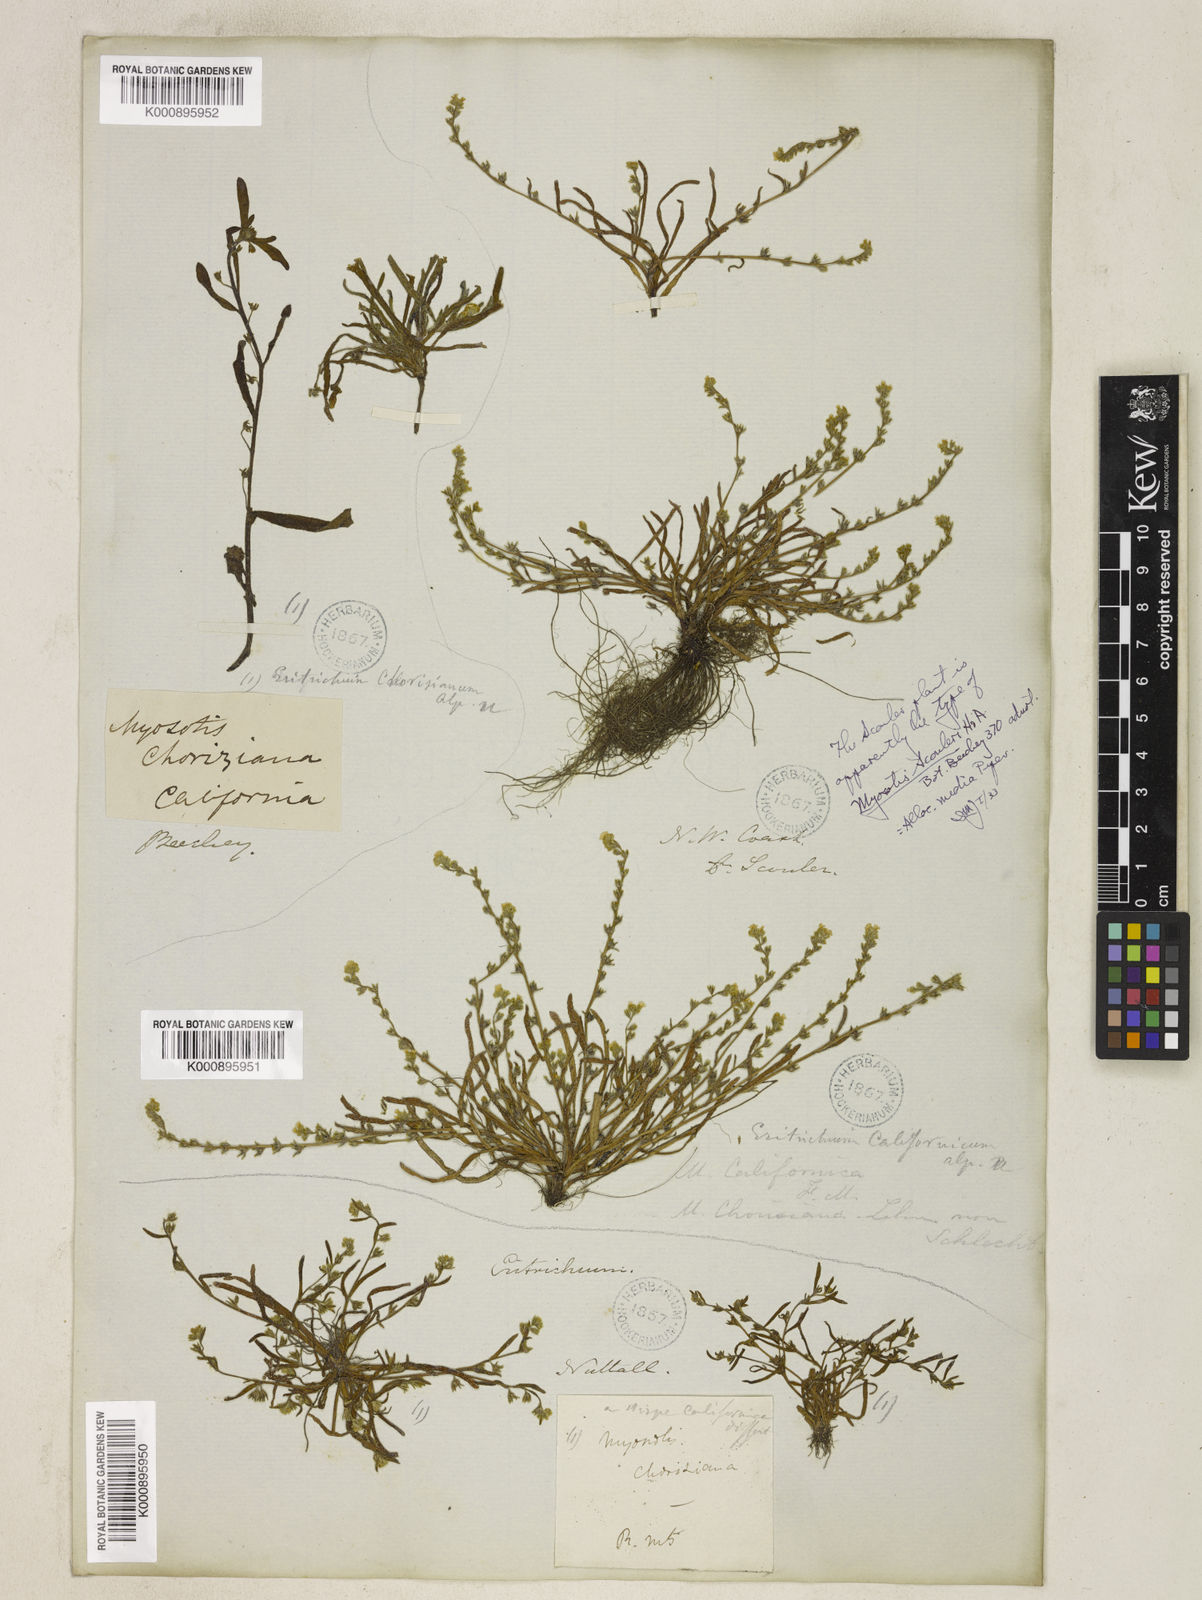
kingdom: Plantae
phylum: Tracheophyta
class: Magnoliopsida
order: Boraginales
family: Boraginaceae
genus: Plagiobothrys
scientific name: Plagiobothrys scouleri
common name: White forget-me-not
